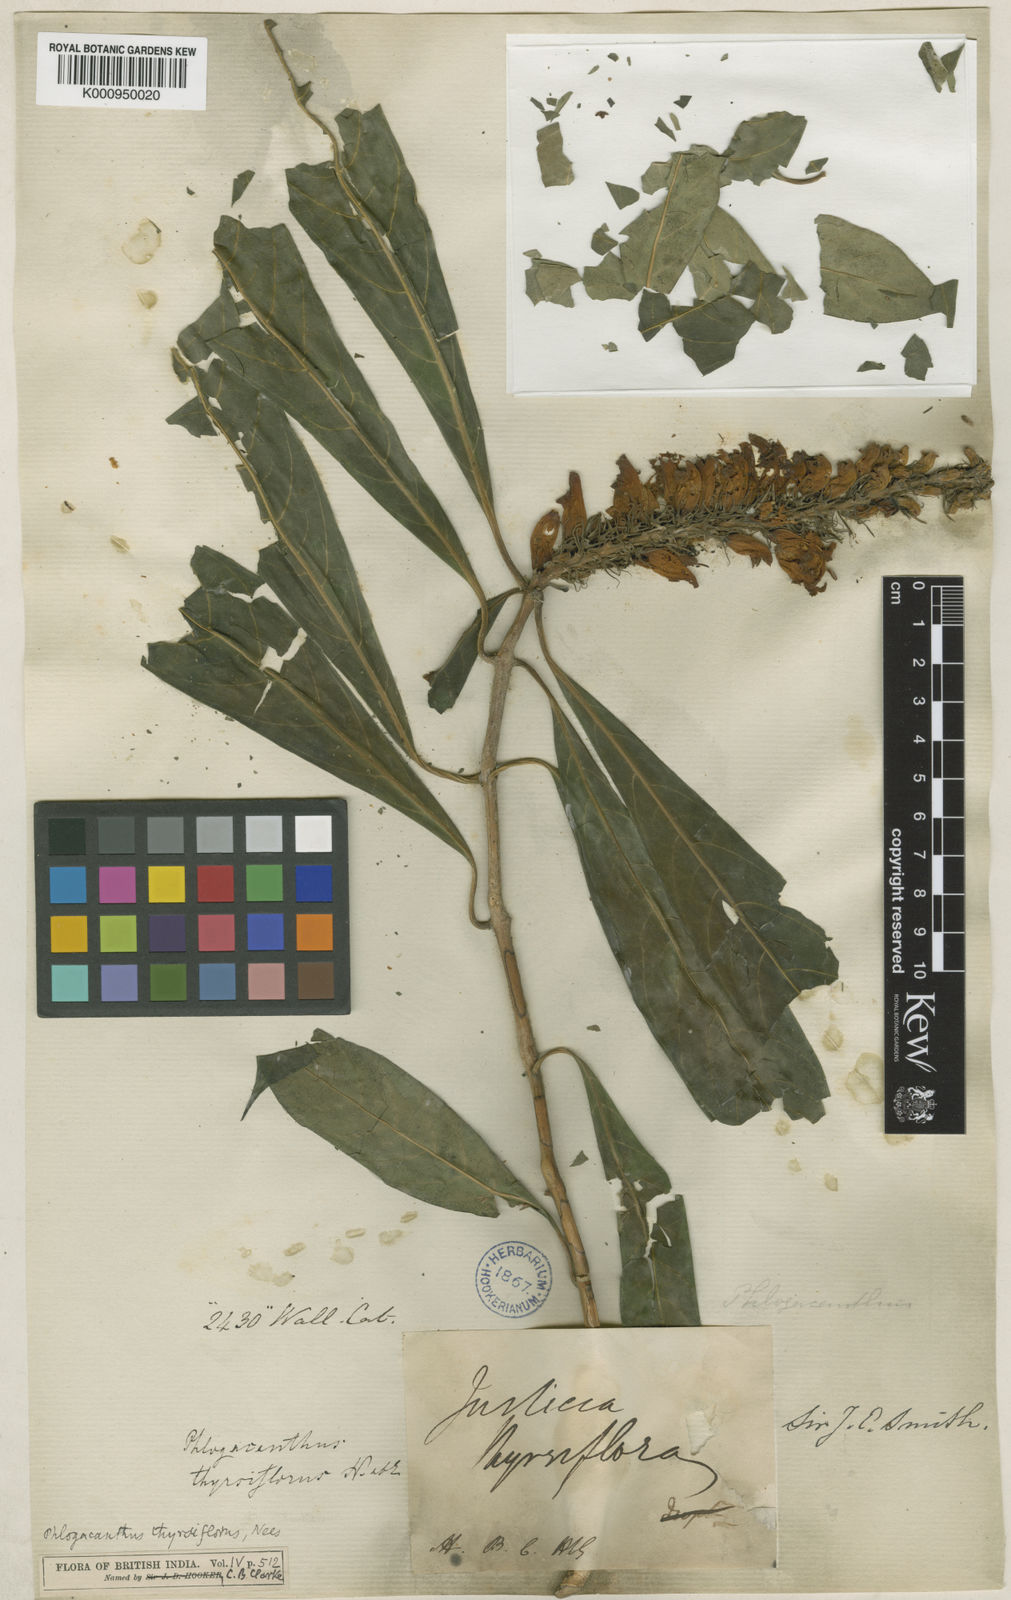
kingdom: Plantae
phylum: Tracheophyta
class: Magnoliopsida
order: Lamiales
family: Acanthaceae
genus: Phlogacanthus
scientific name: Phlogacanthus thyrsiformis
